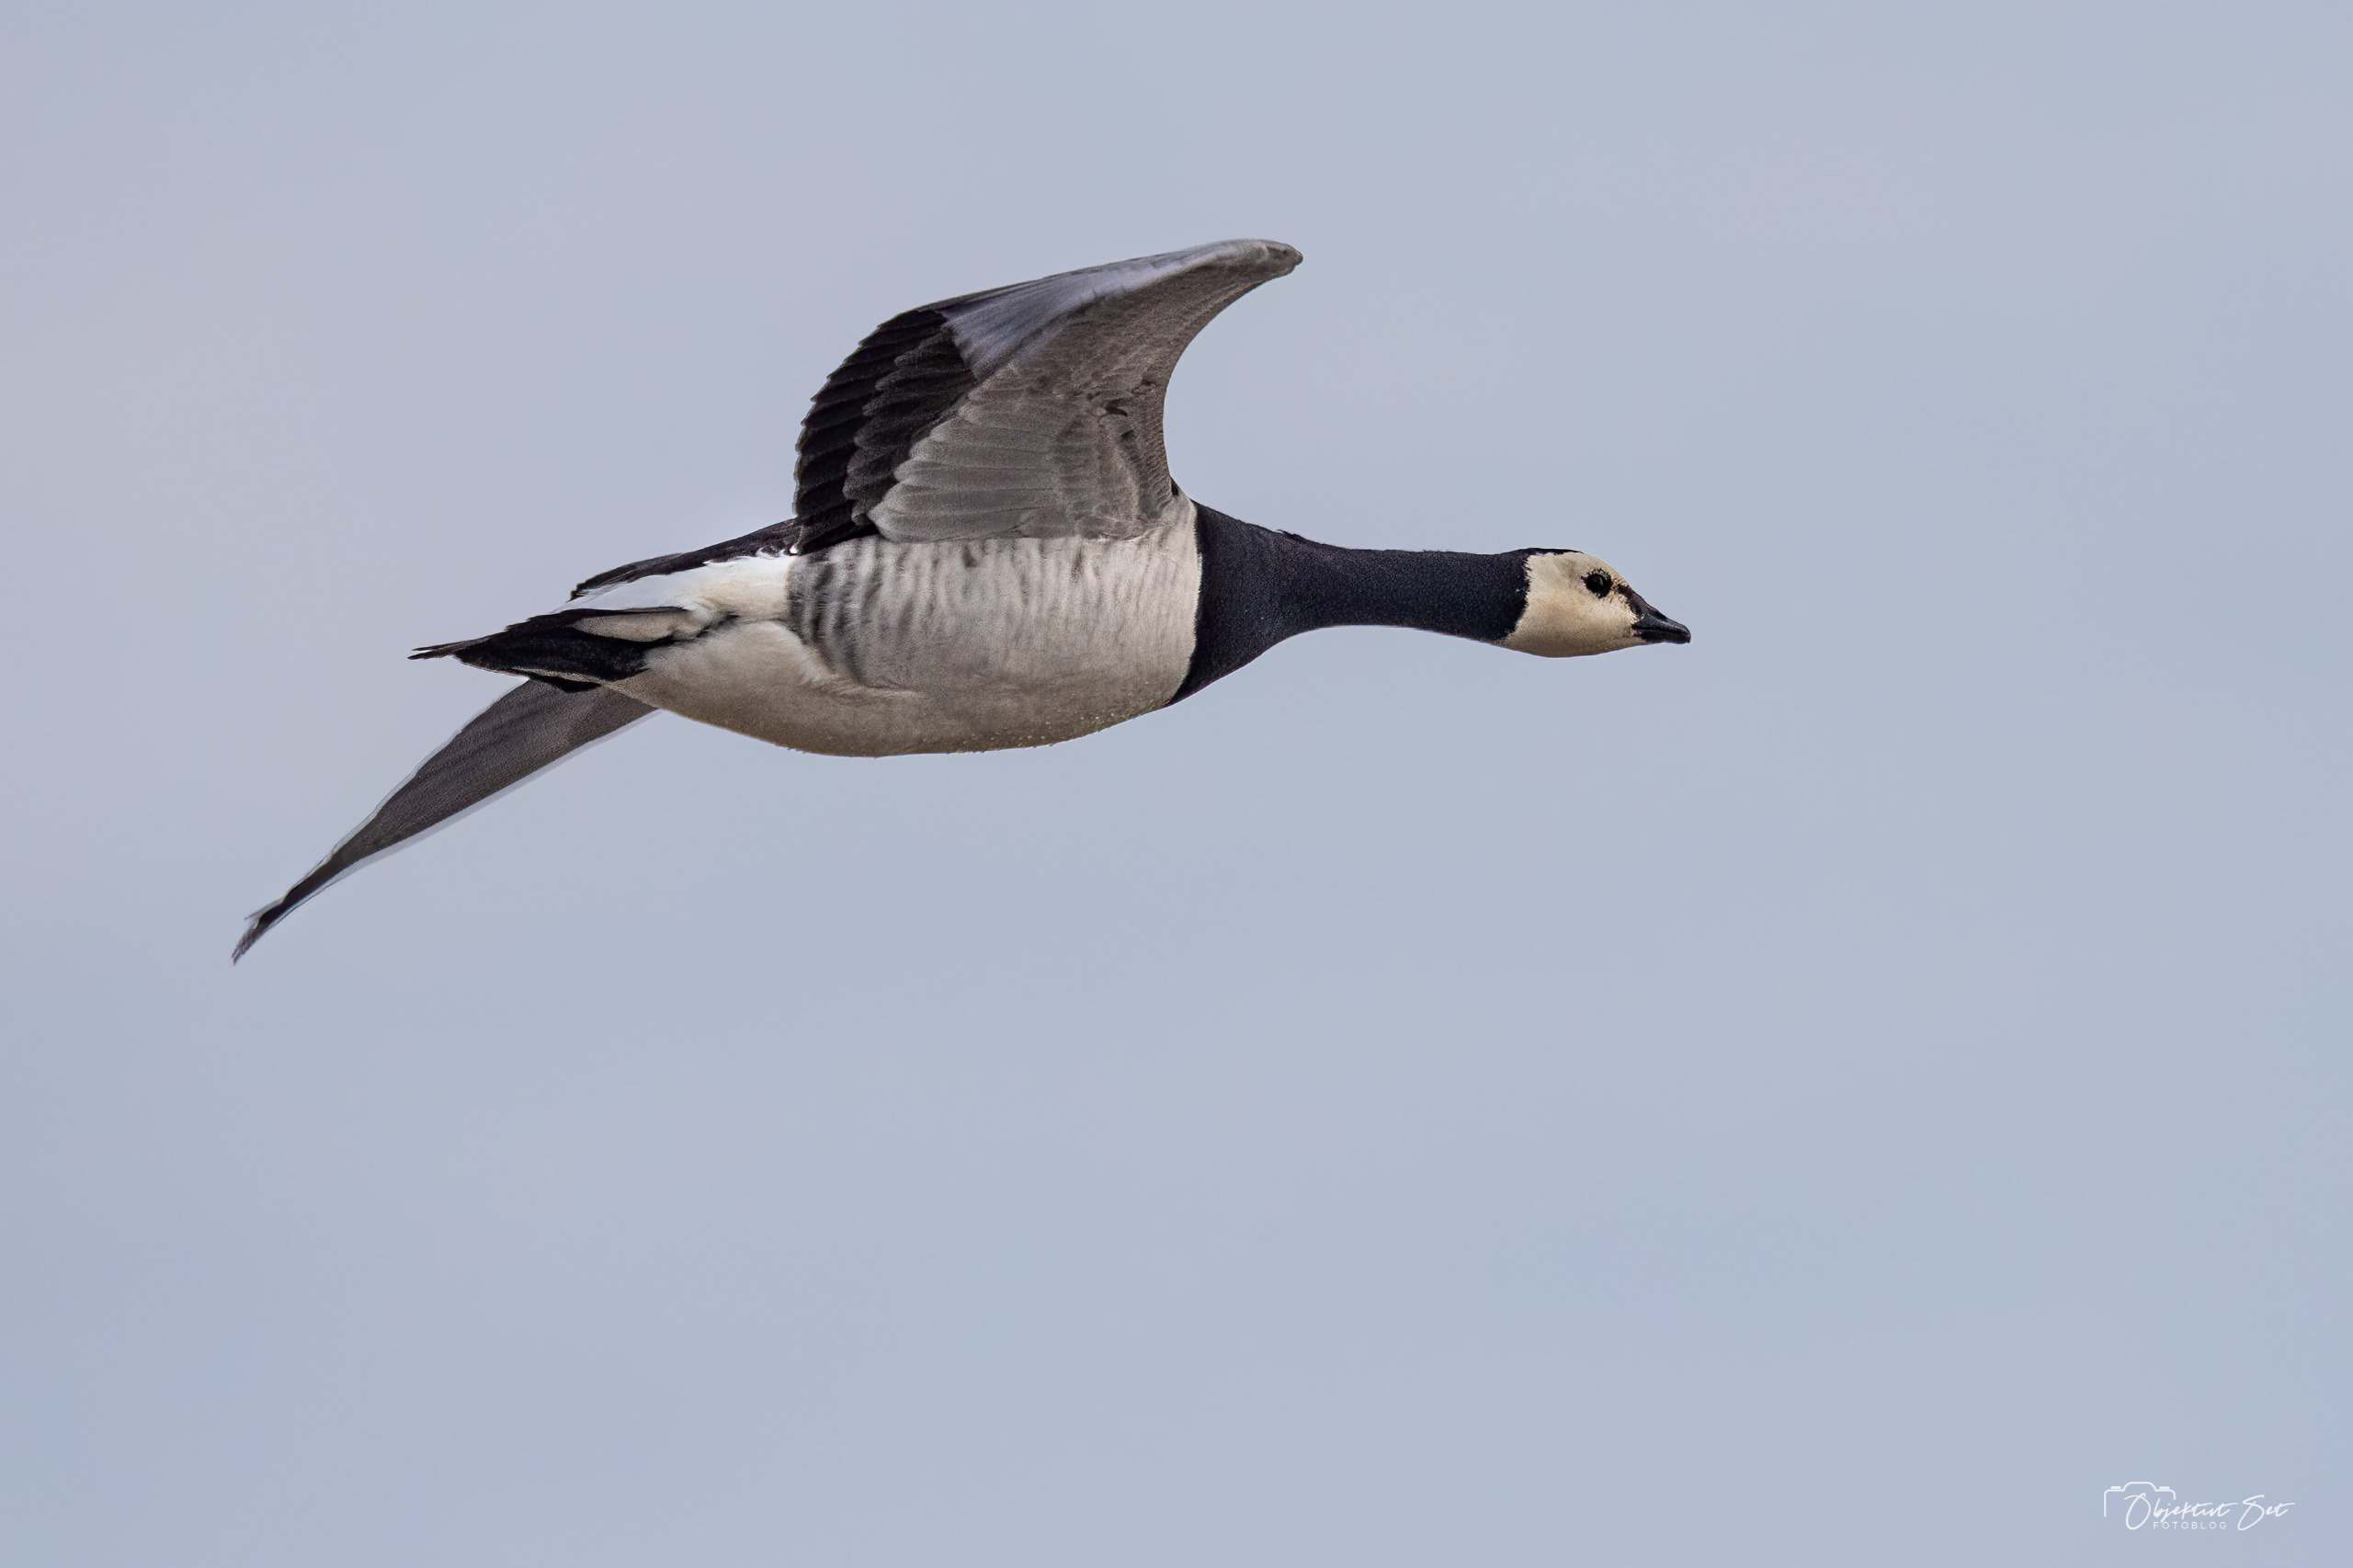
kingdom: Animalia
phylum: Chordata
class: Aves
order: Anseriformes
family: Anatidae
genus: Branta
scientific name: Branta leucopsis
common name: Bramgås
